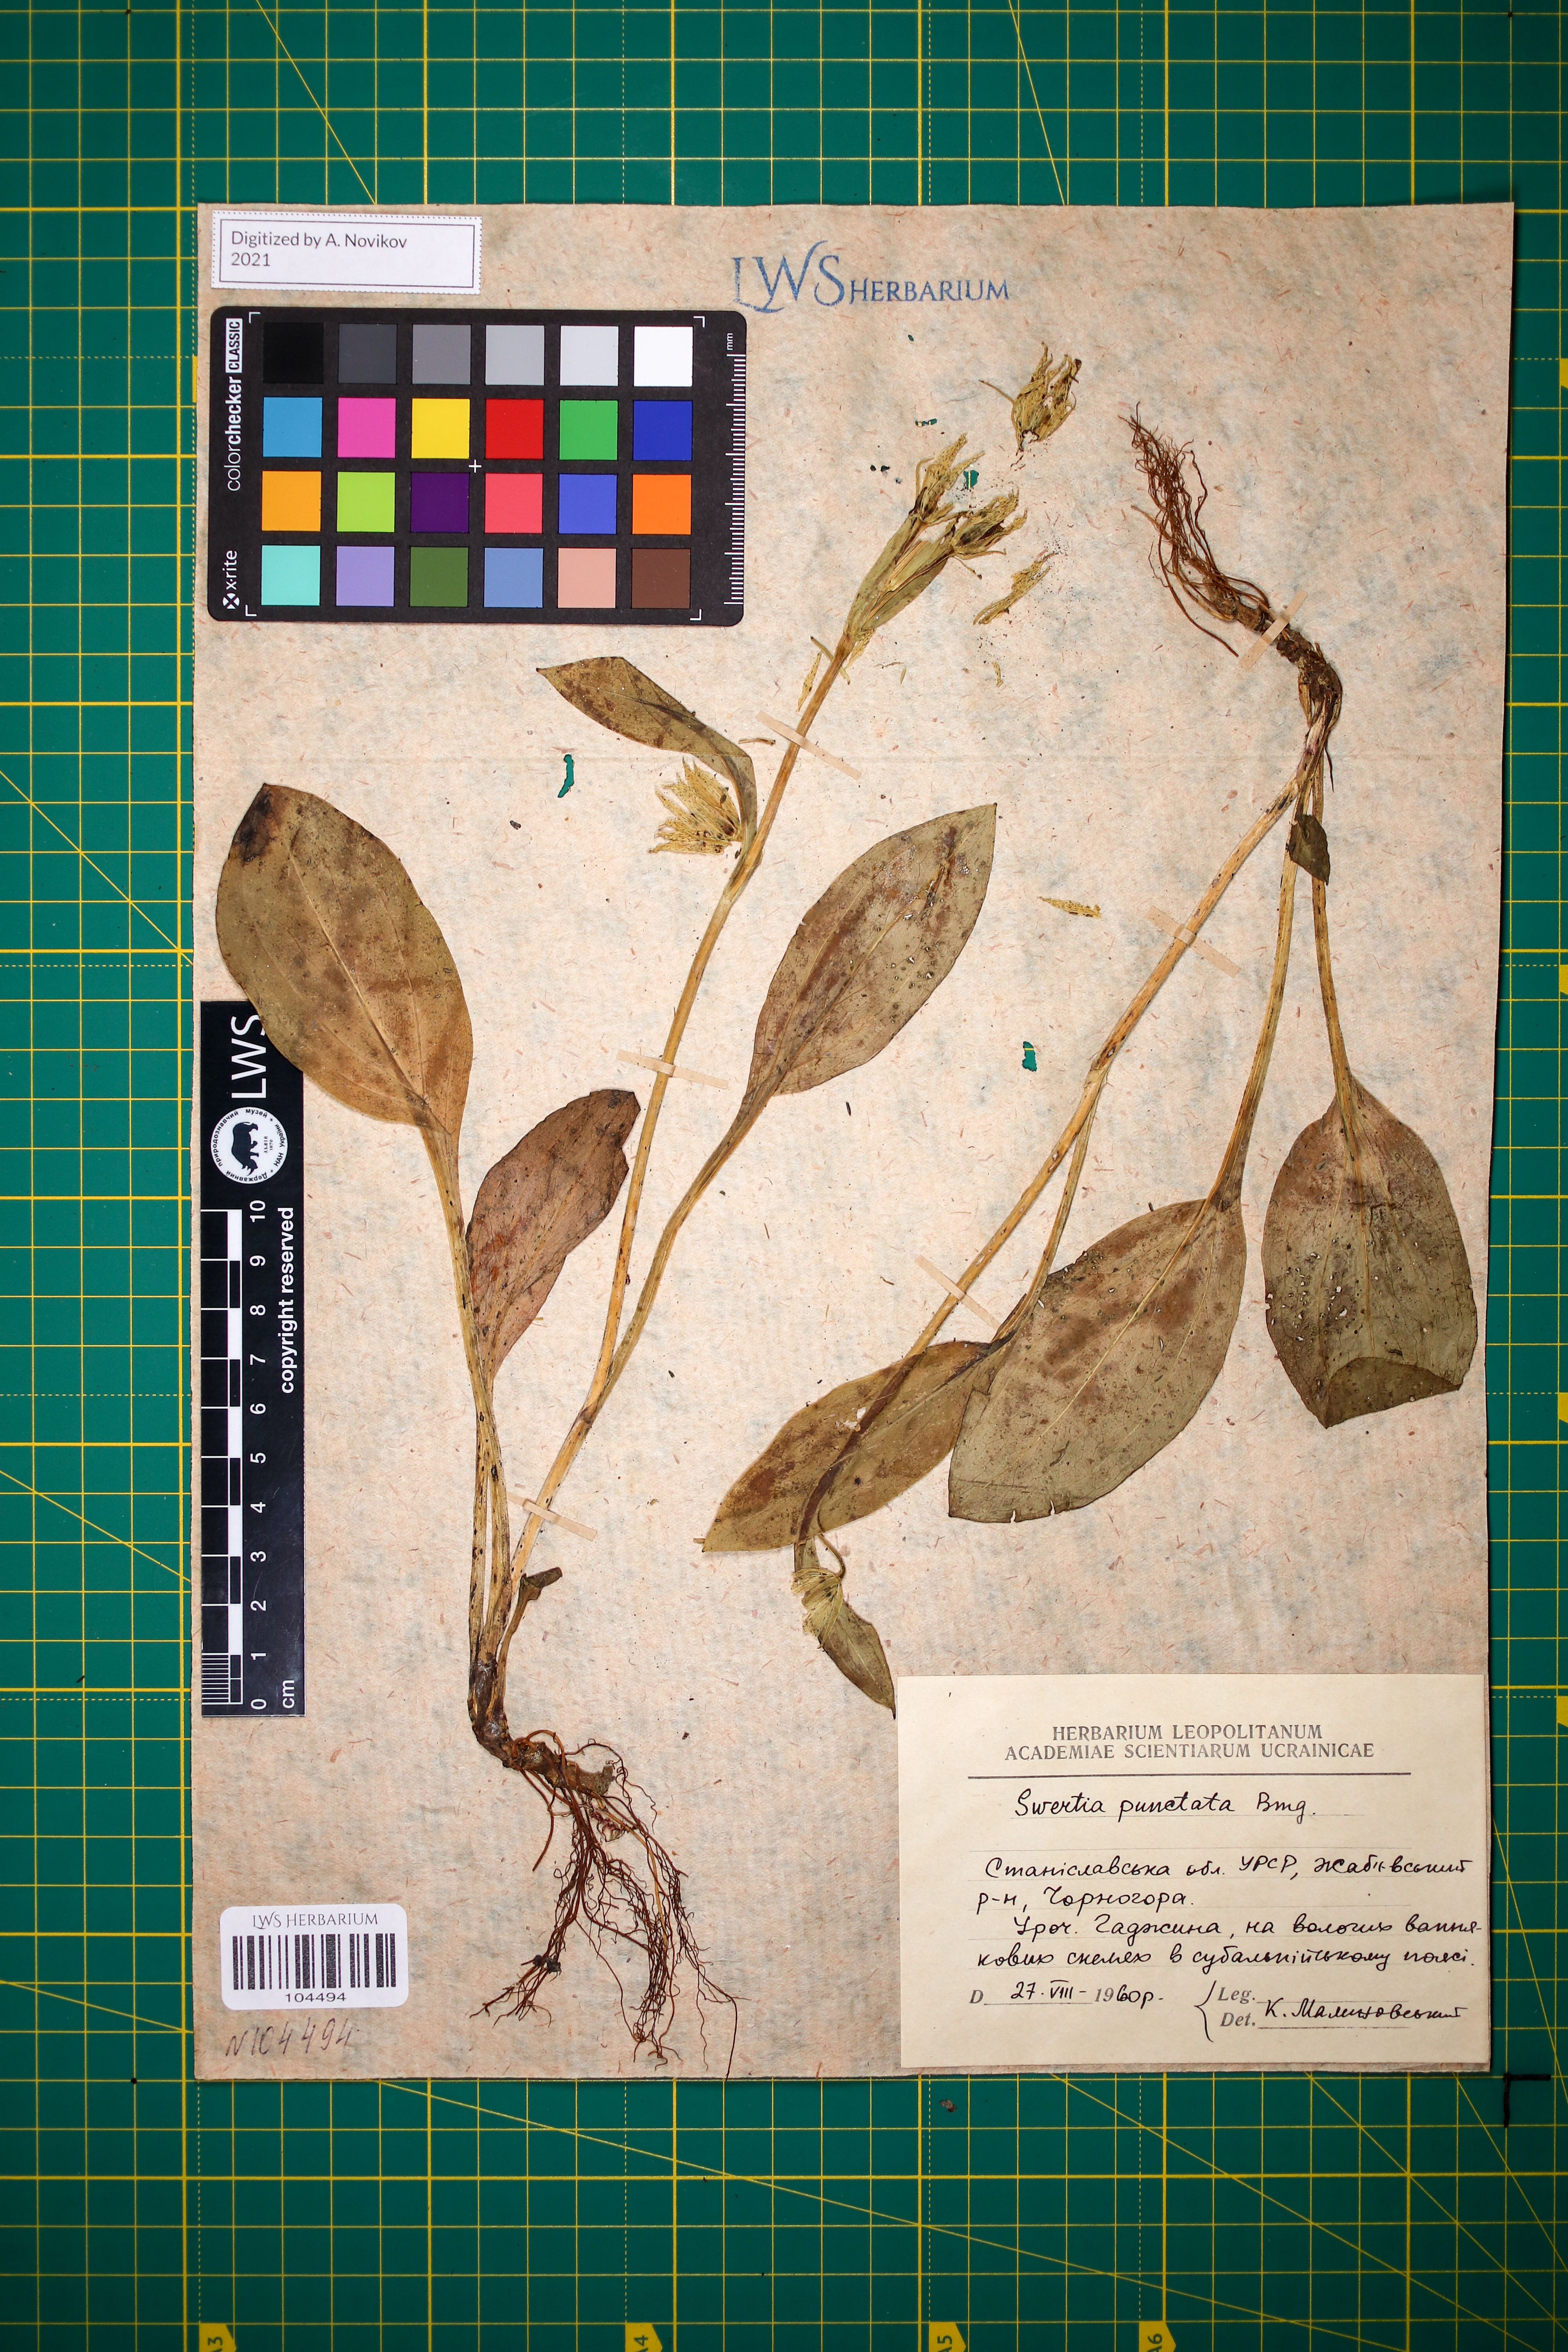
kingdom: Plantae
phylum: Tracheophyta
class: Magnoliopsida
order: Gentianales
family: Gentianaceae
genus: Swertia
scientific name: Swertia perennis
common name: Alpine bog swertia
